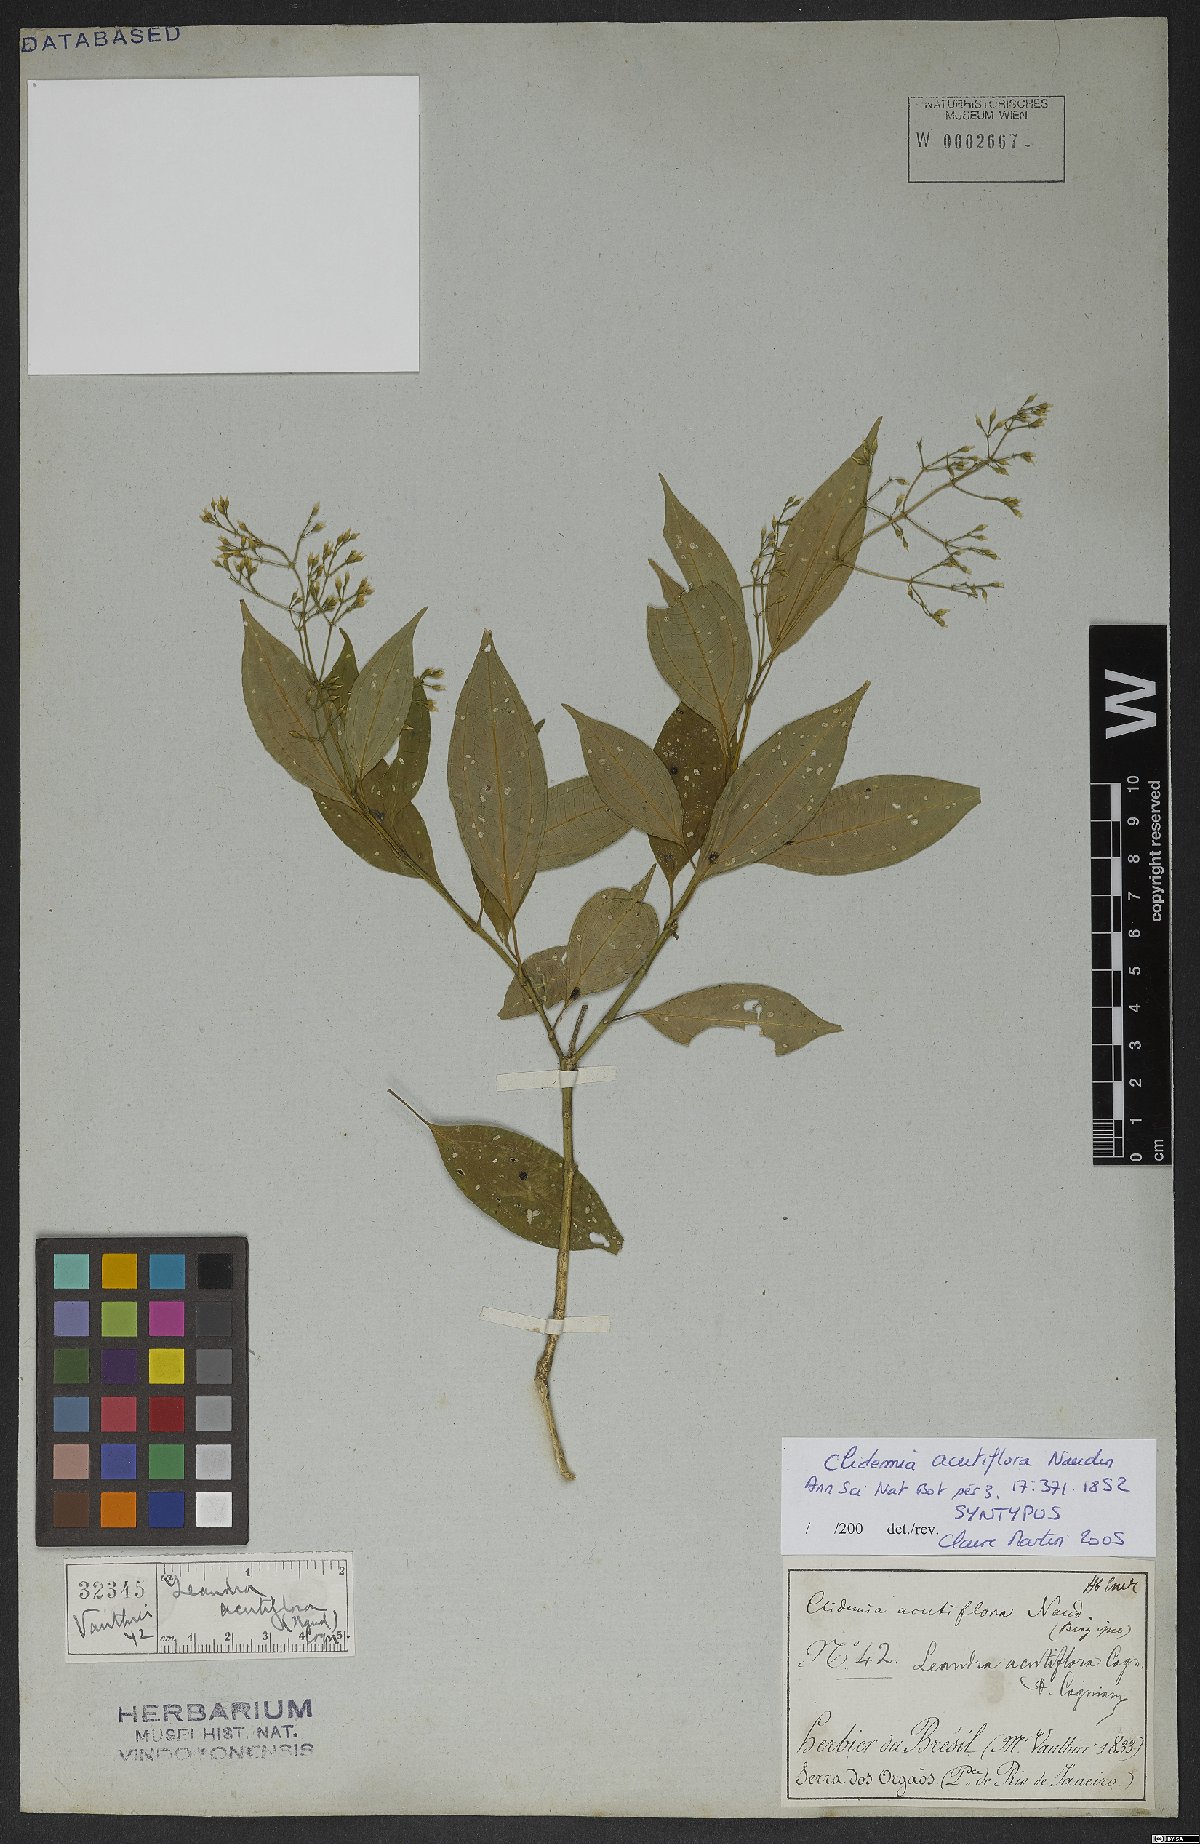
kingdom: Plantae
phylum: Tracheophyta
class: Magnoliopsida
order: Myrtales
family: Melastomataceae
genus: Miconia
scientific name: Miconia acutiflora
